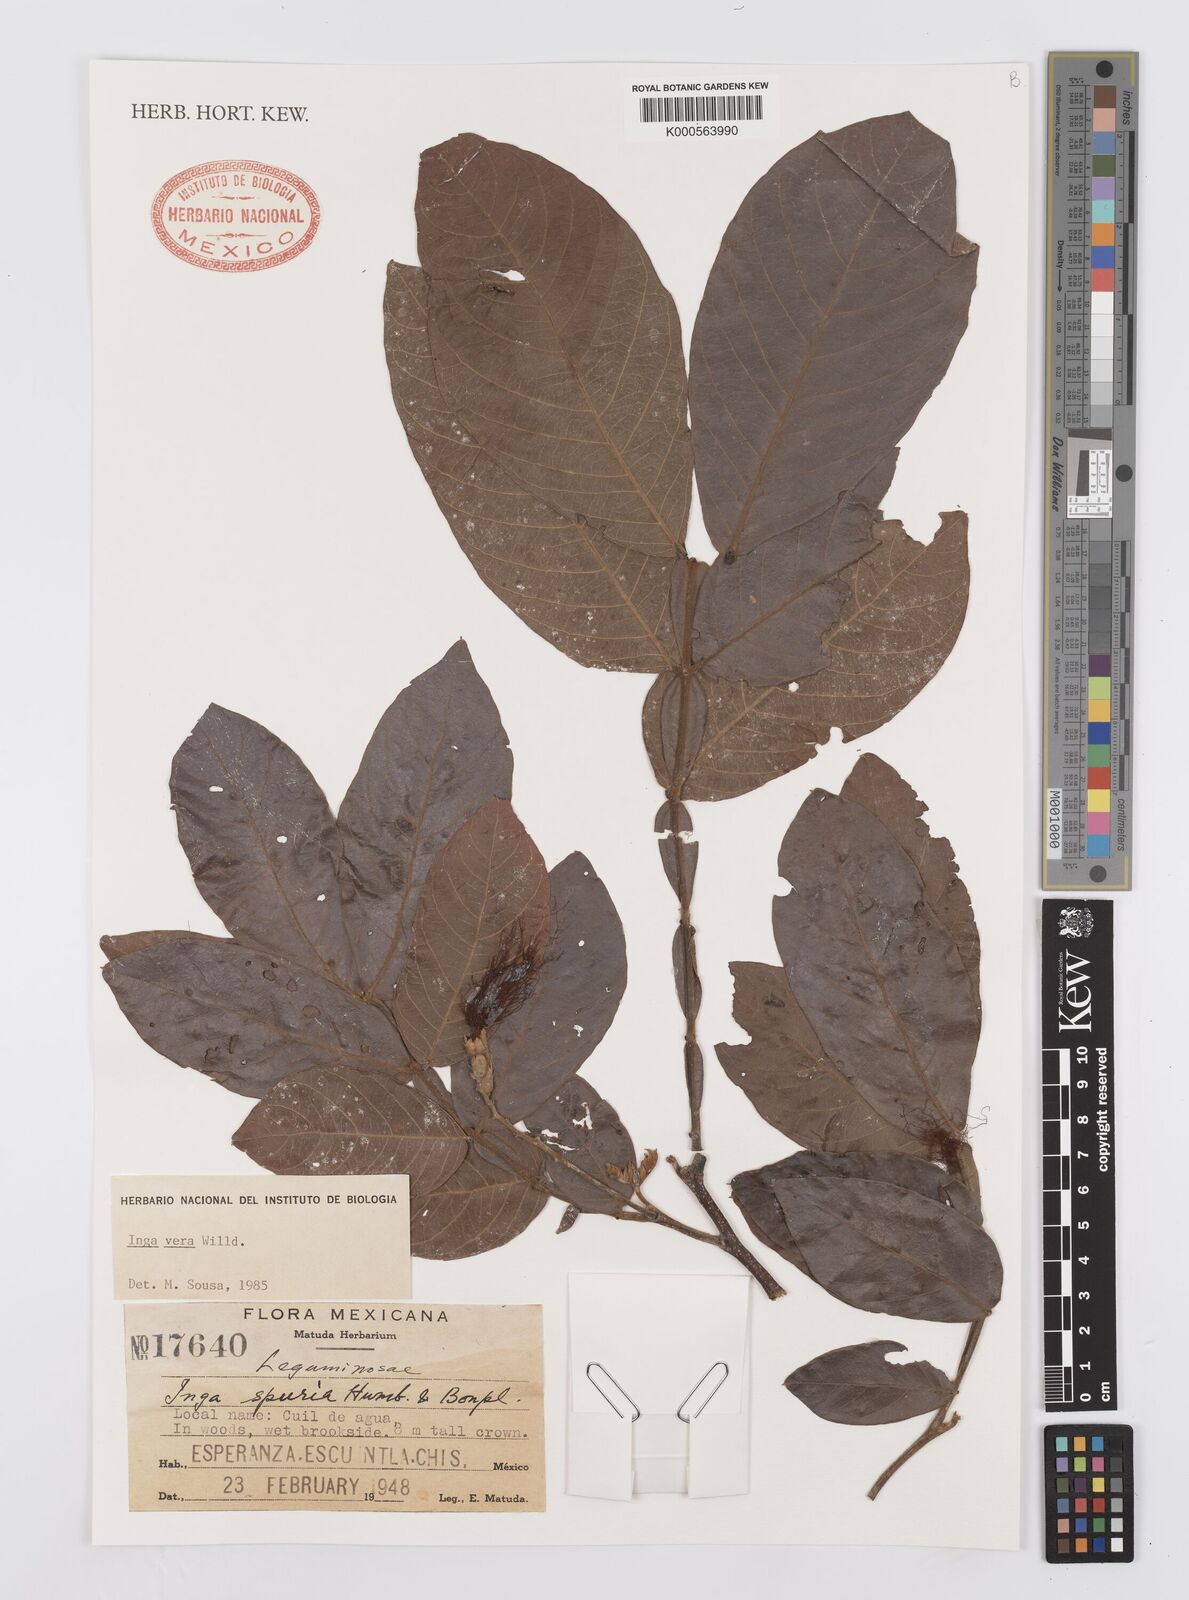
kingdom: Plantae
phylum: Tracheophyta
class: Magnoliopsida
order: Fabales
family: Fabaceae
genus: Inga
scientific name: Inga vera
